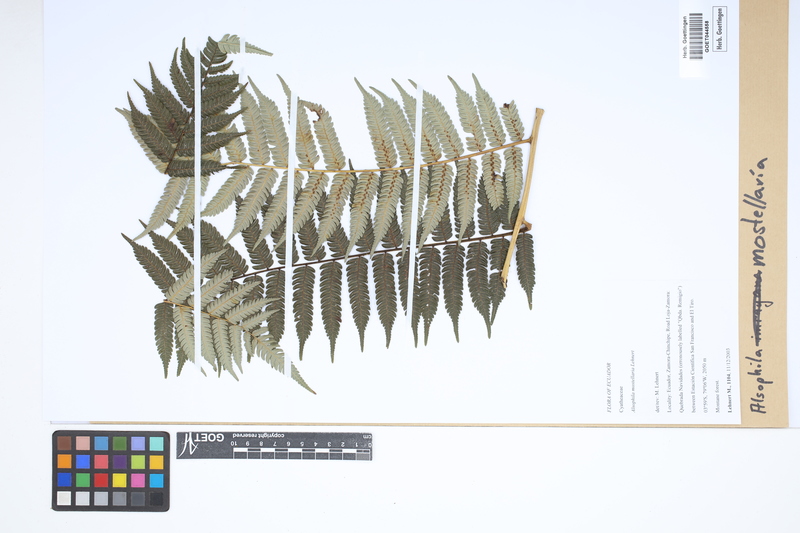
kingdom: Plantae
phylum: Tracheophyta
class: Polypodiopsida
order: Cyatheales
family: Cyatheaceae
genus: Alsophila
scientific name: Alsophila mostellaria
